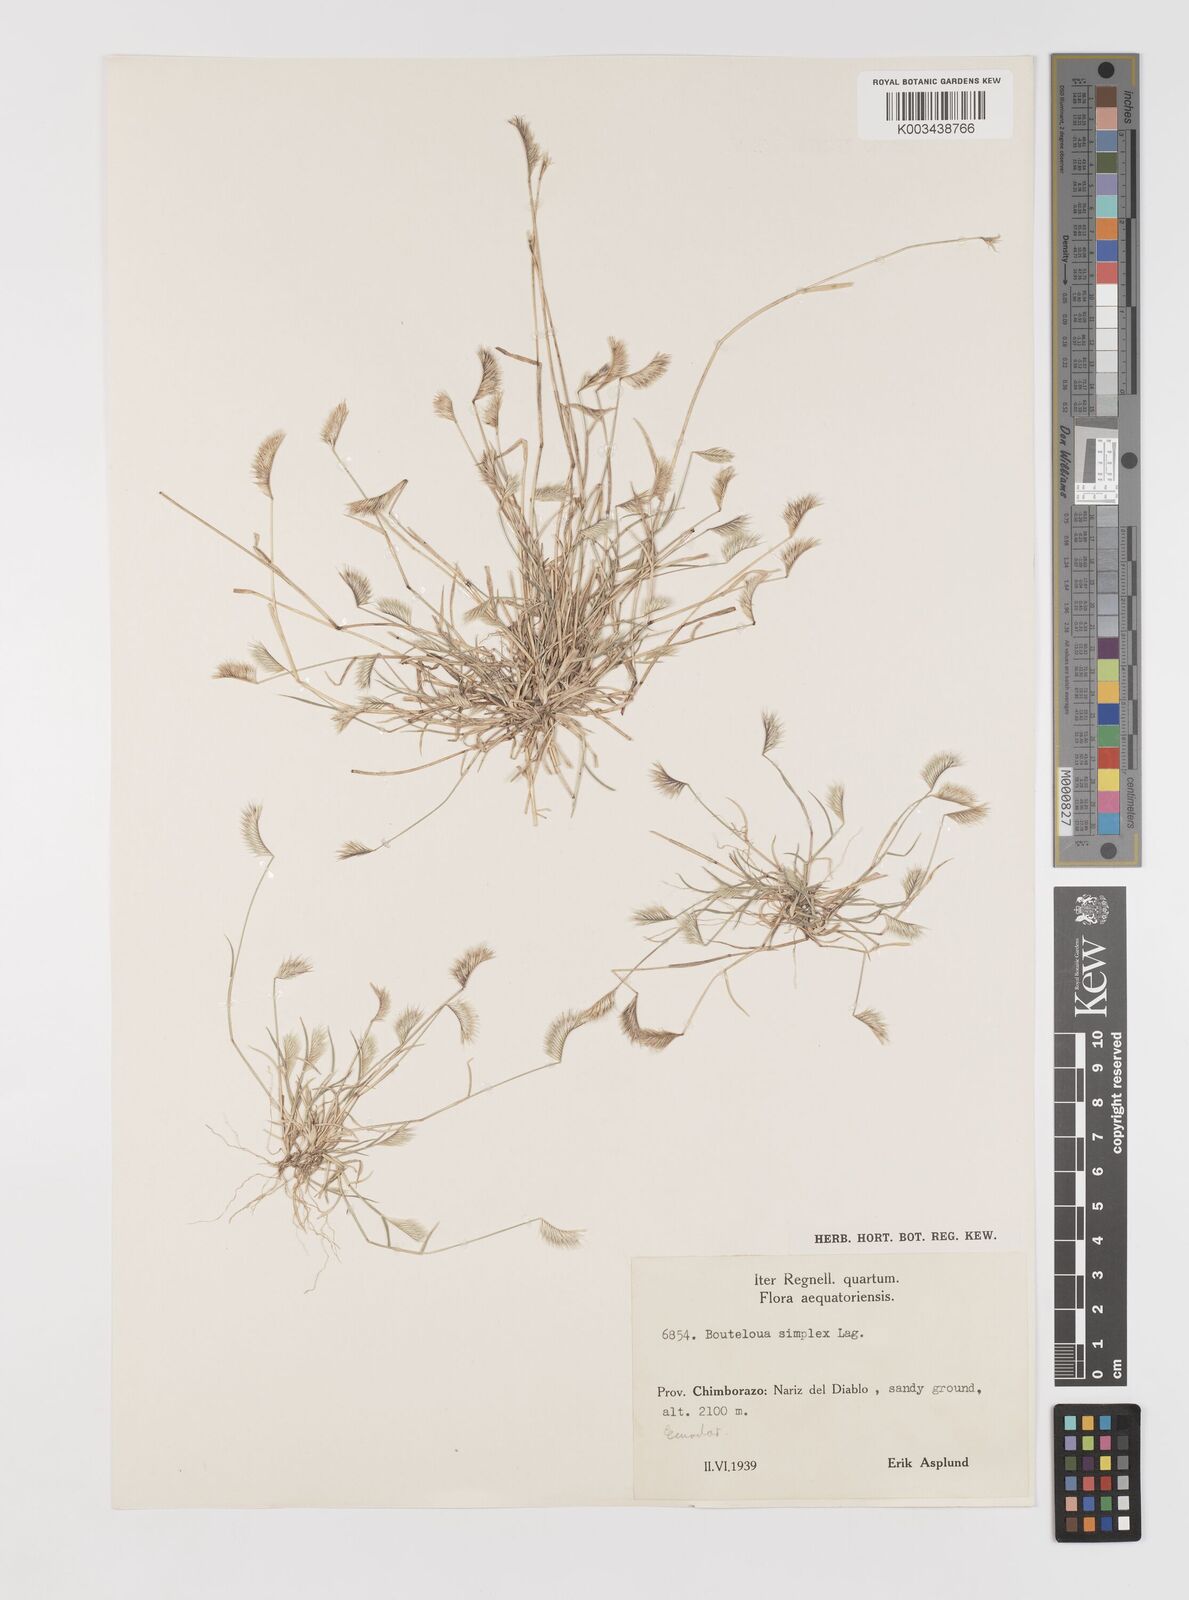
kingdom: Plantae
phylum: Tracheophyta
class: Liliopsida
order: Poales
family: Poaceae
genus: Bouteloua
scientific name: Bouteloua simplex
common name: Mat grama
